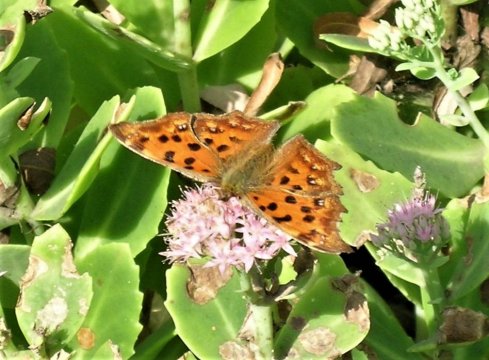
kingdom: Animalia
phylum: Arthropoda
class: Insecta
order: Lepidoptera
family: Nymphalidae
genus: Polygonia
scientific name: Polygonia c-aureum
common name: Asian Comma
